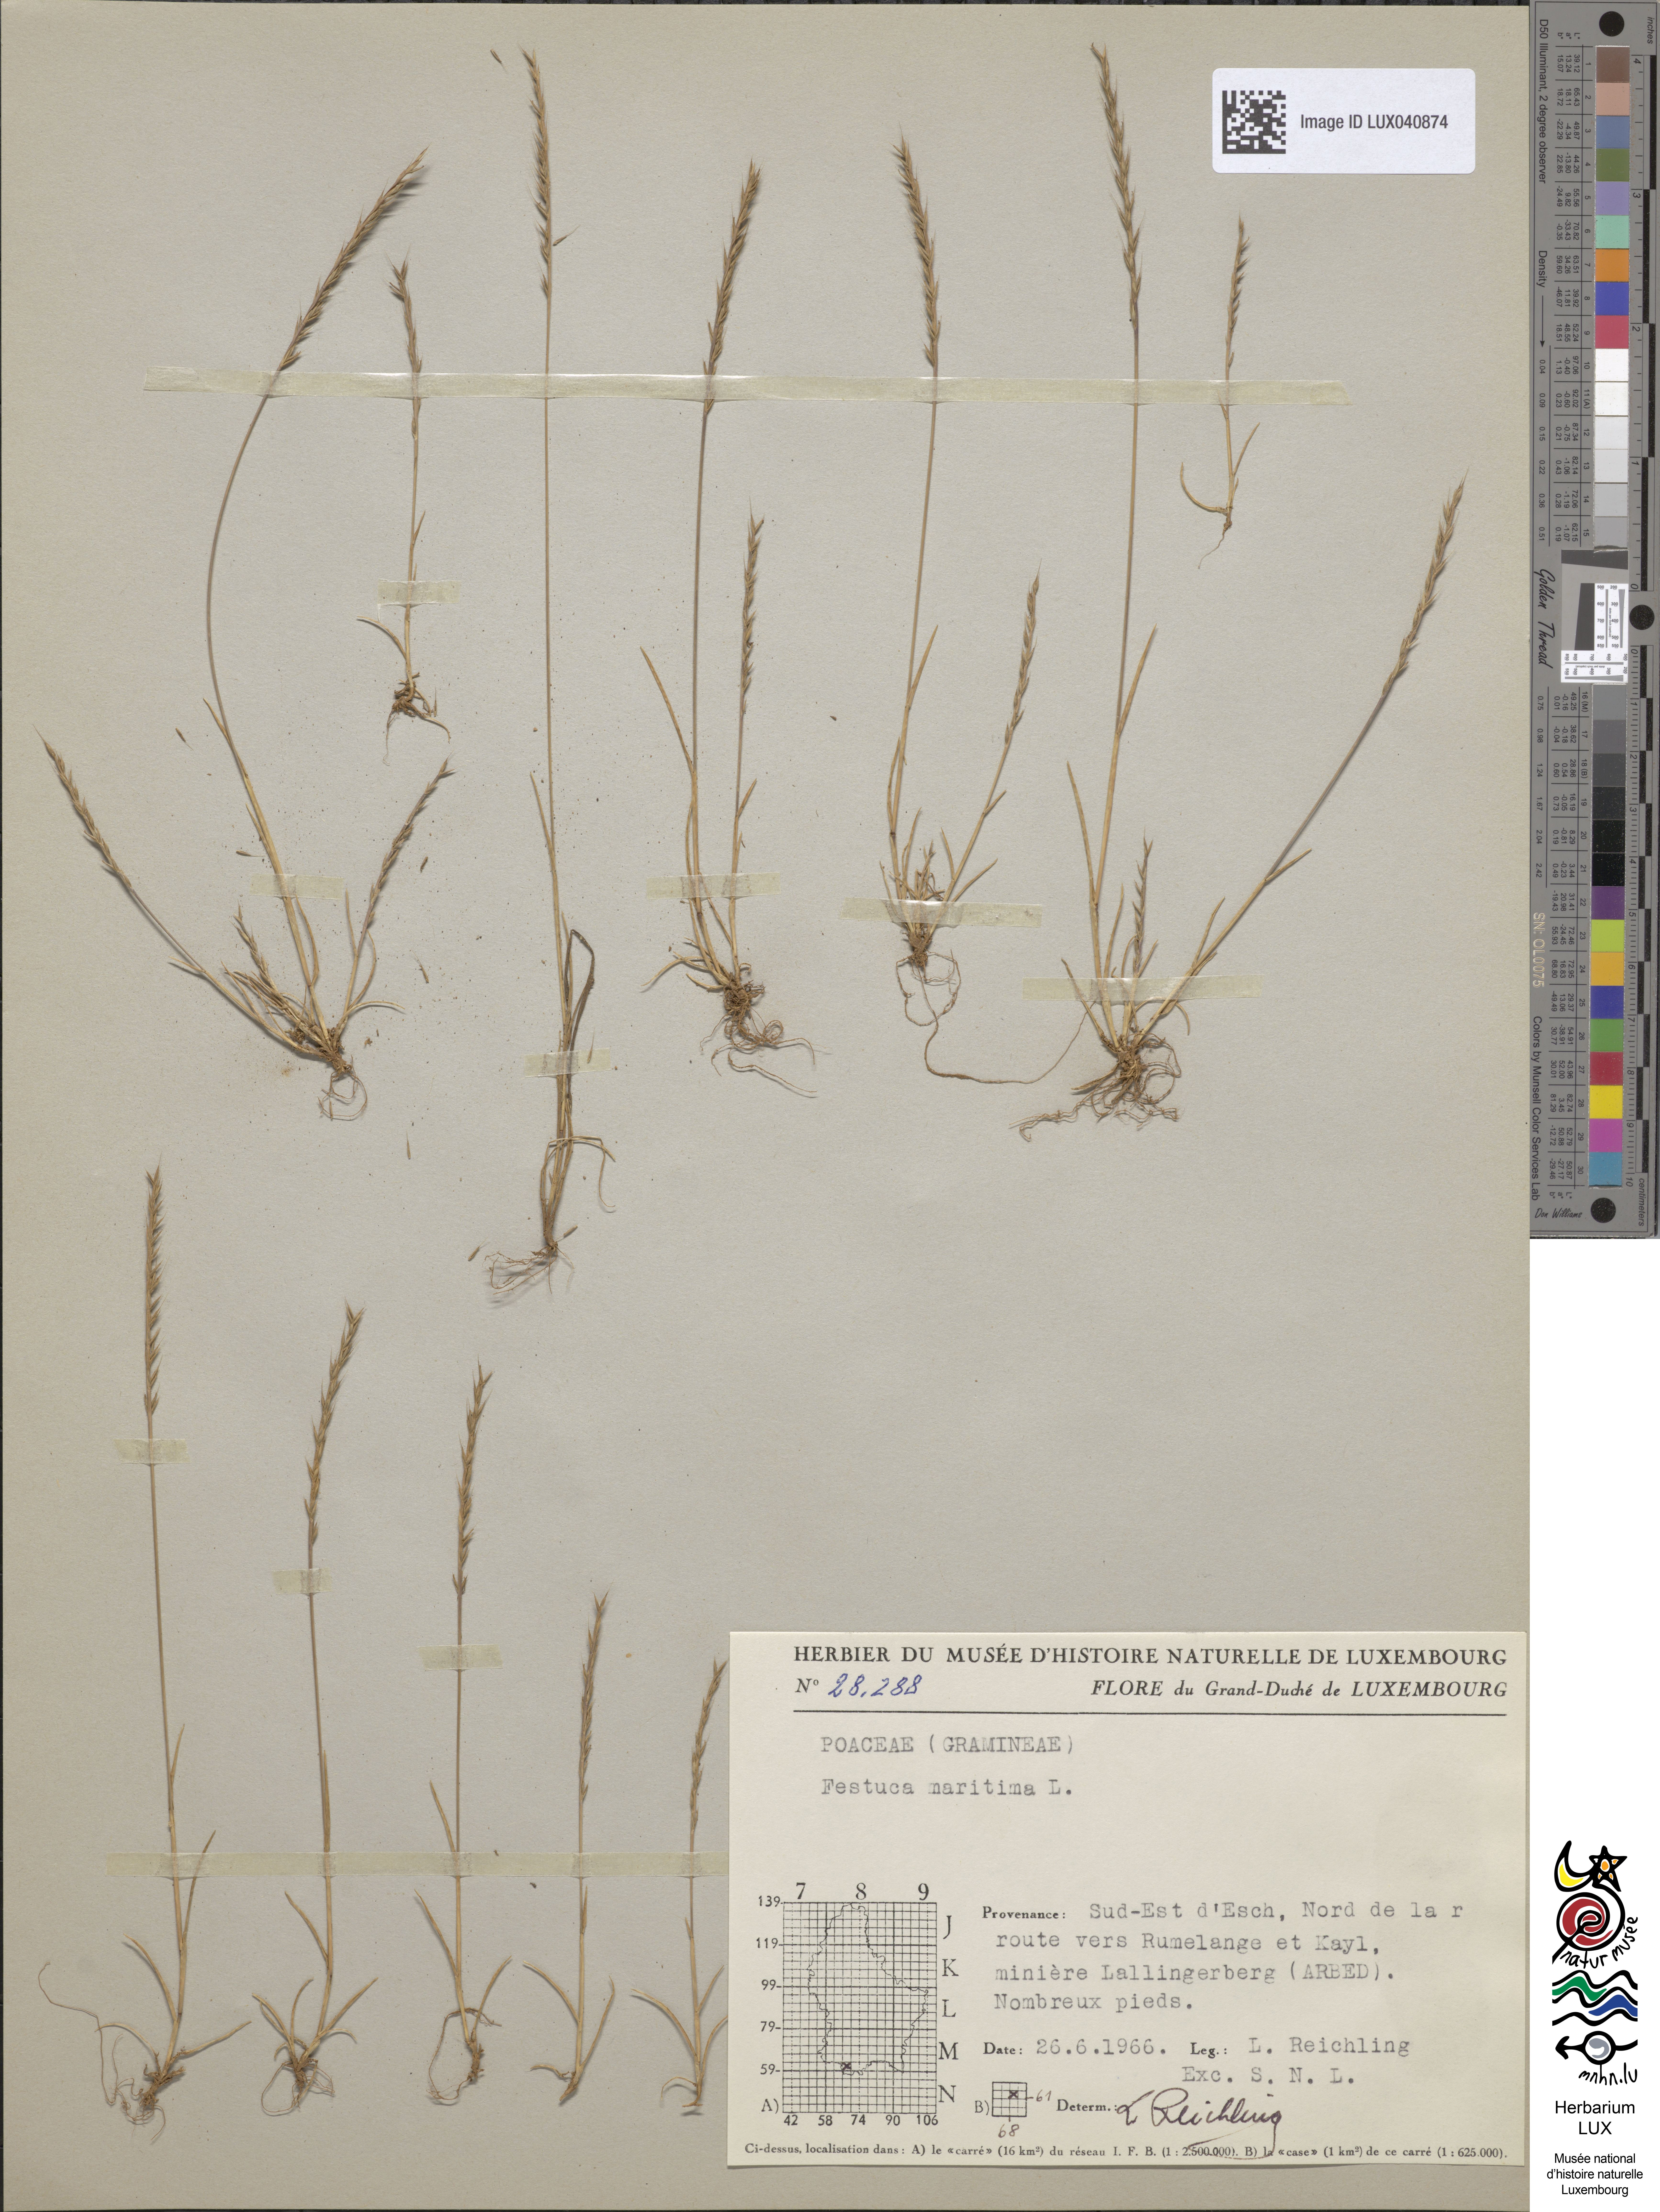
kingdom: Plantae
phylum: Tracheophyta
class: Liliopsida
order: Poales
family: Poaceae
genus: Festuca
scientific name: Festuca maritima
